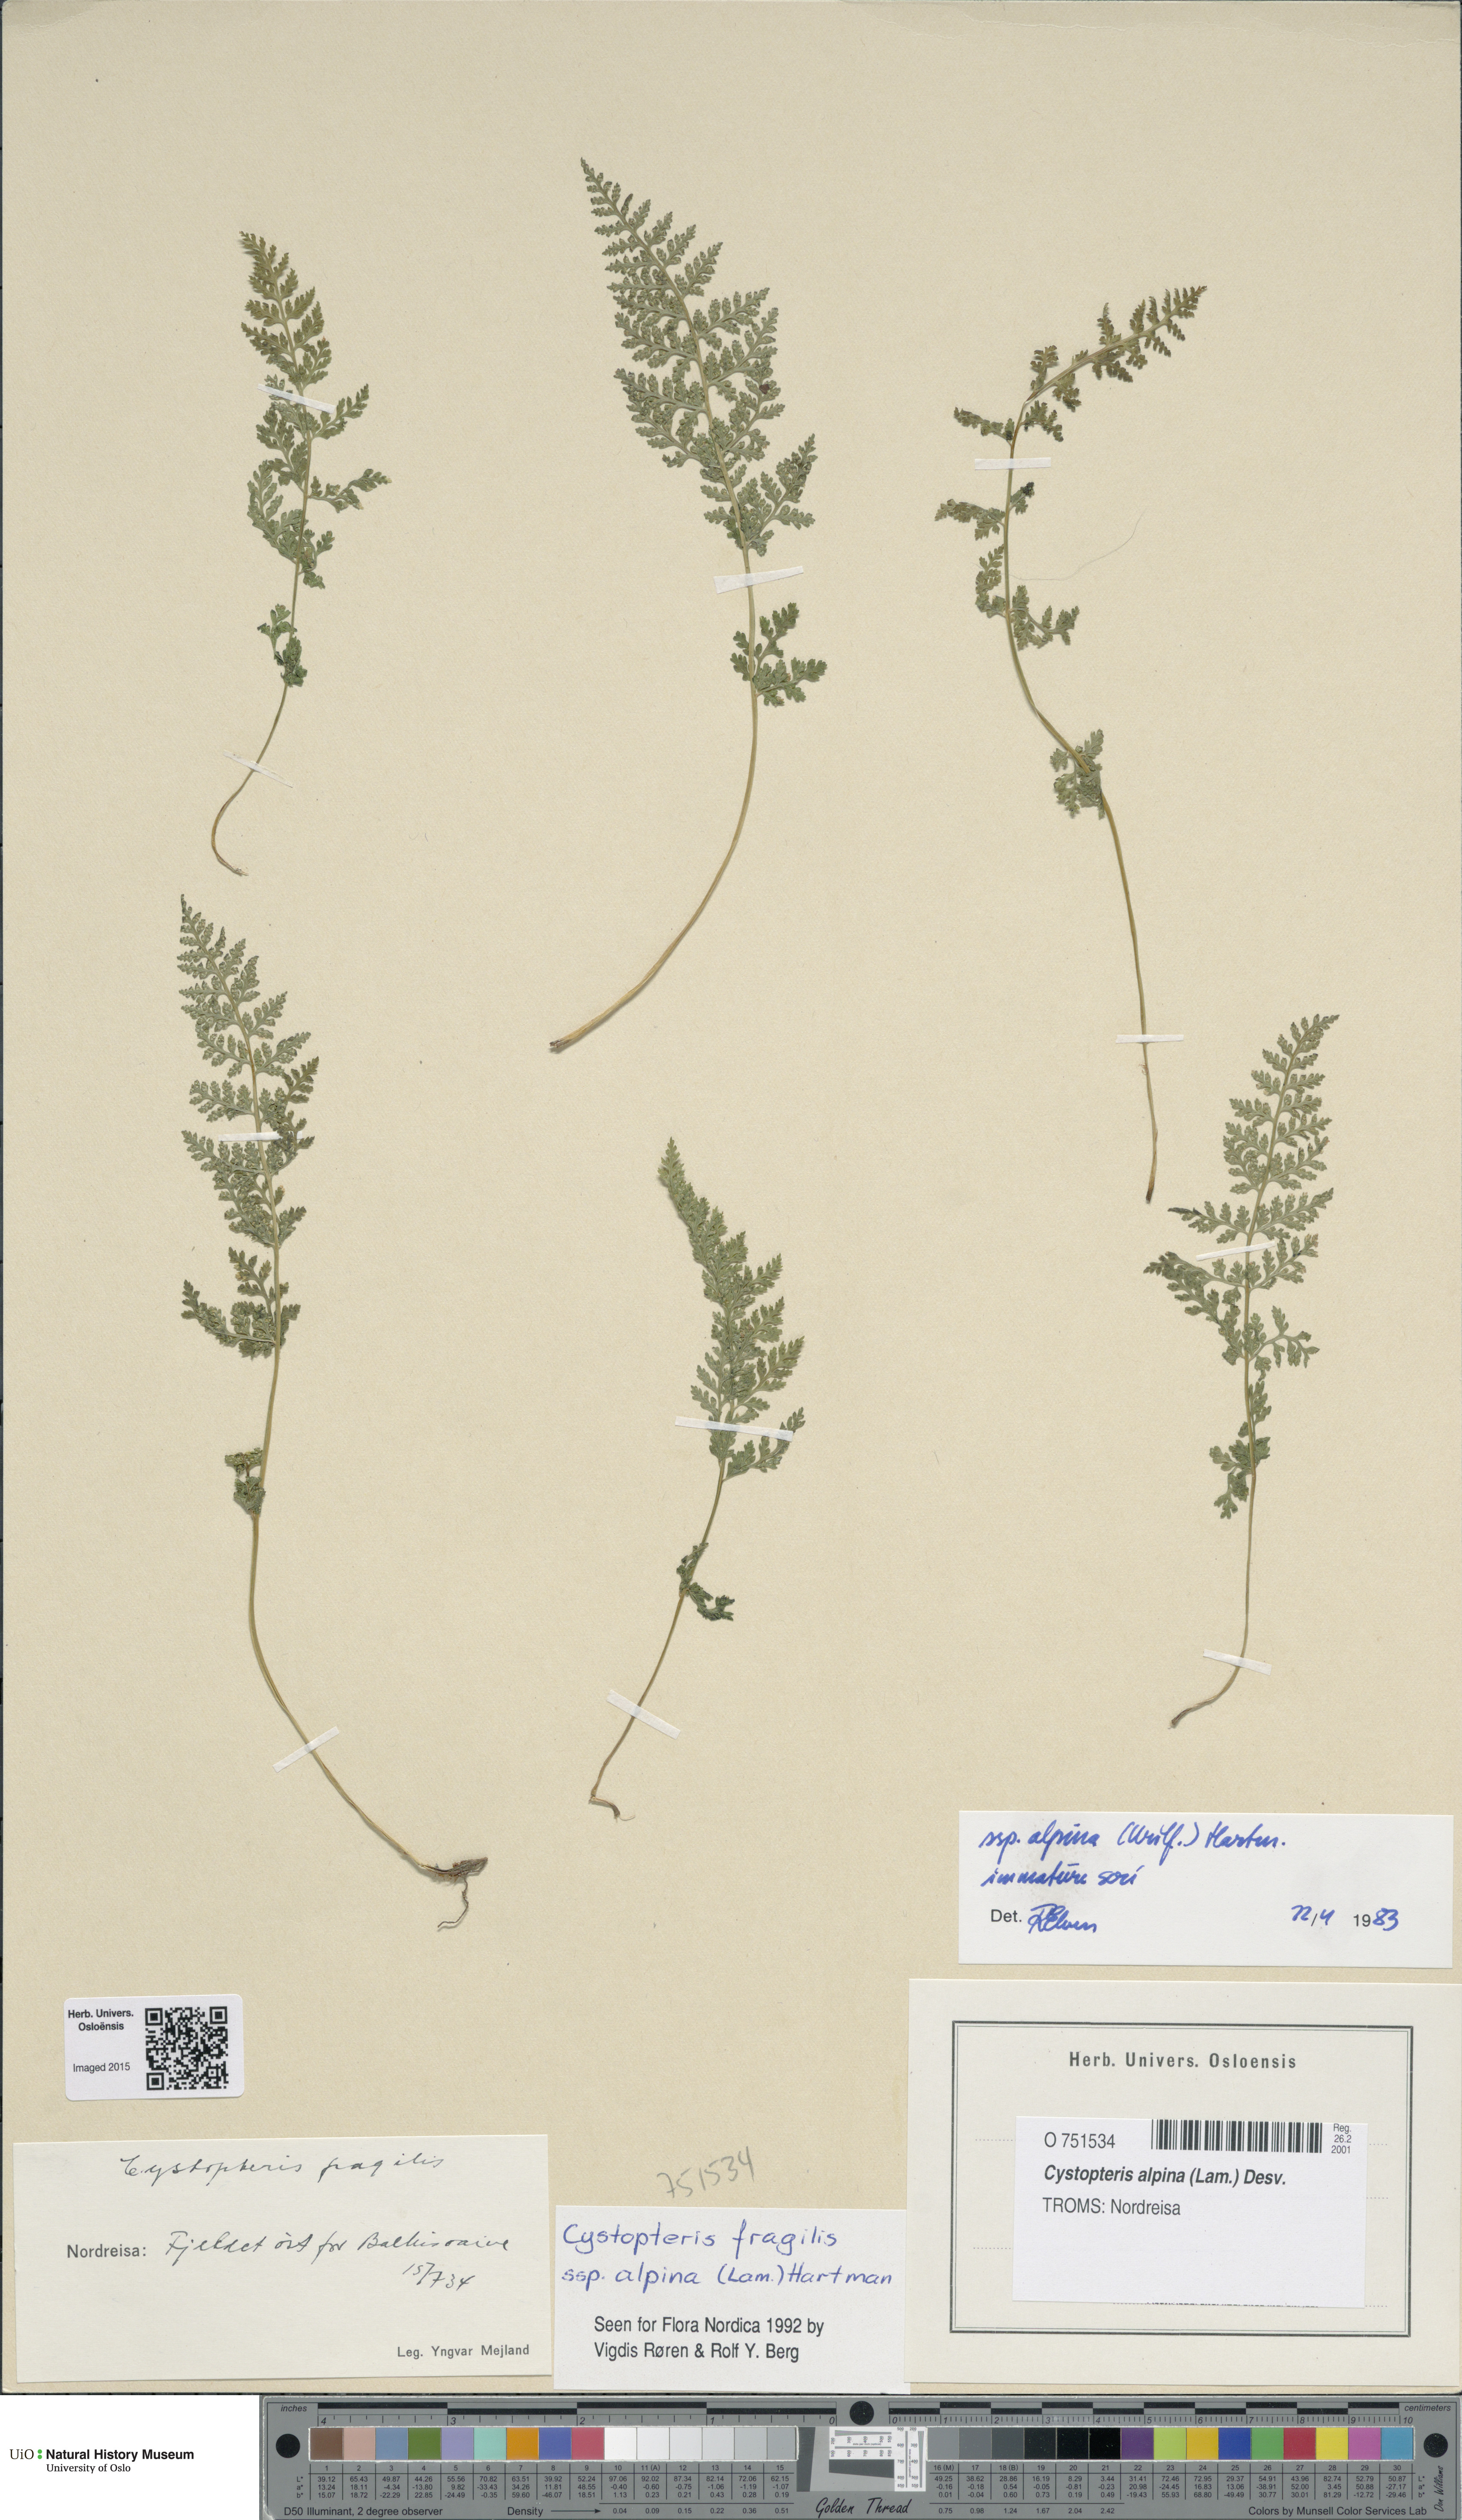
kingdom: Plantae
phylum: Tracheophyta
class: Polypodiopsida
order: Polypodiales
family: Cystopteridaceae
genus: Cystopteris
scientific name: Cystopteris alpina
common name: Alpine bladder-fern
